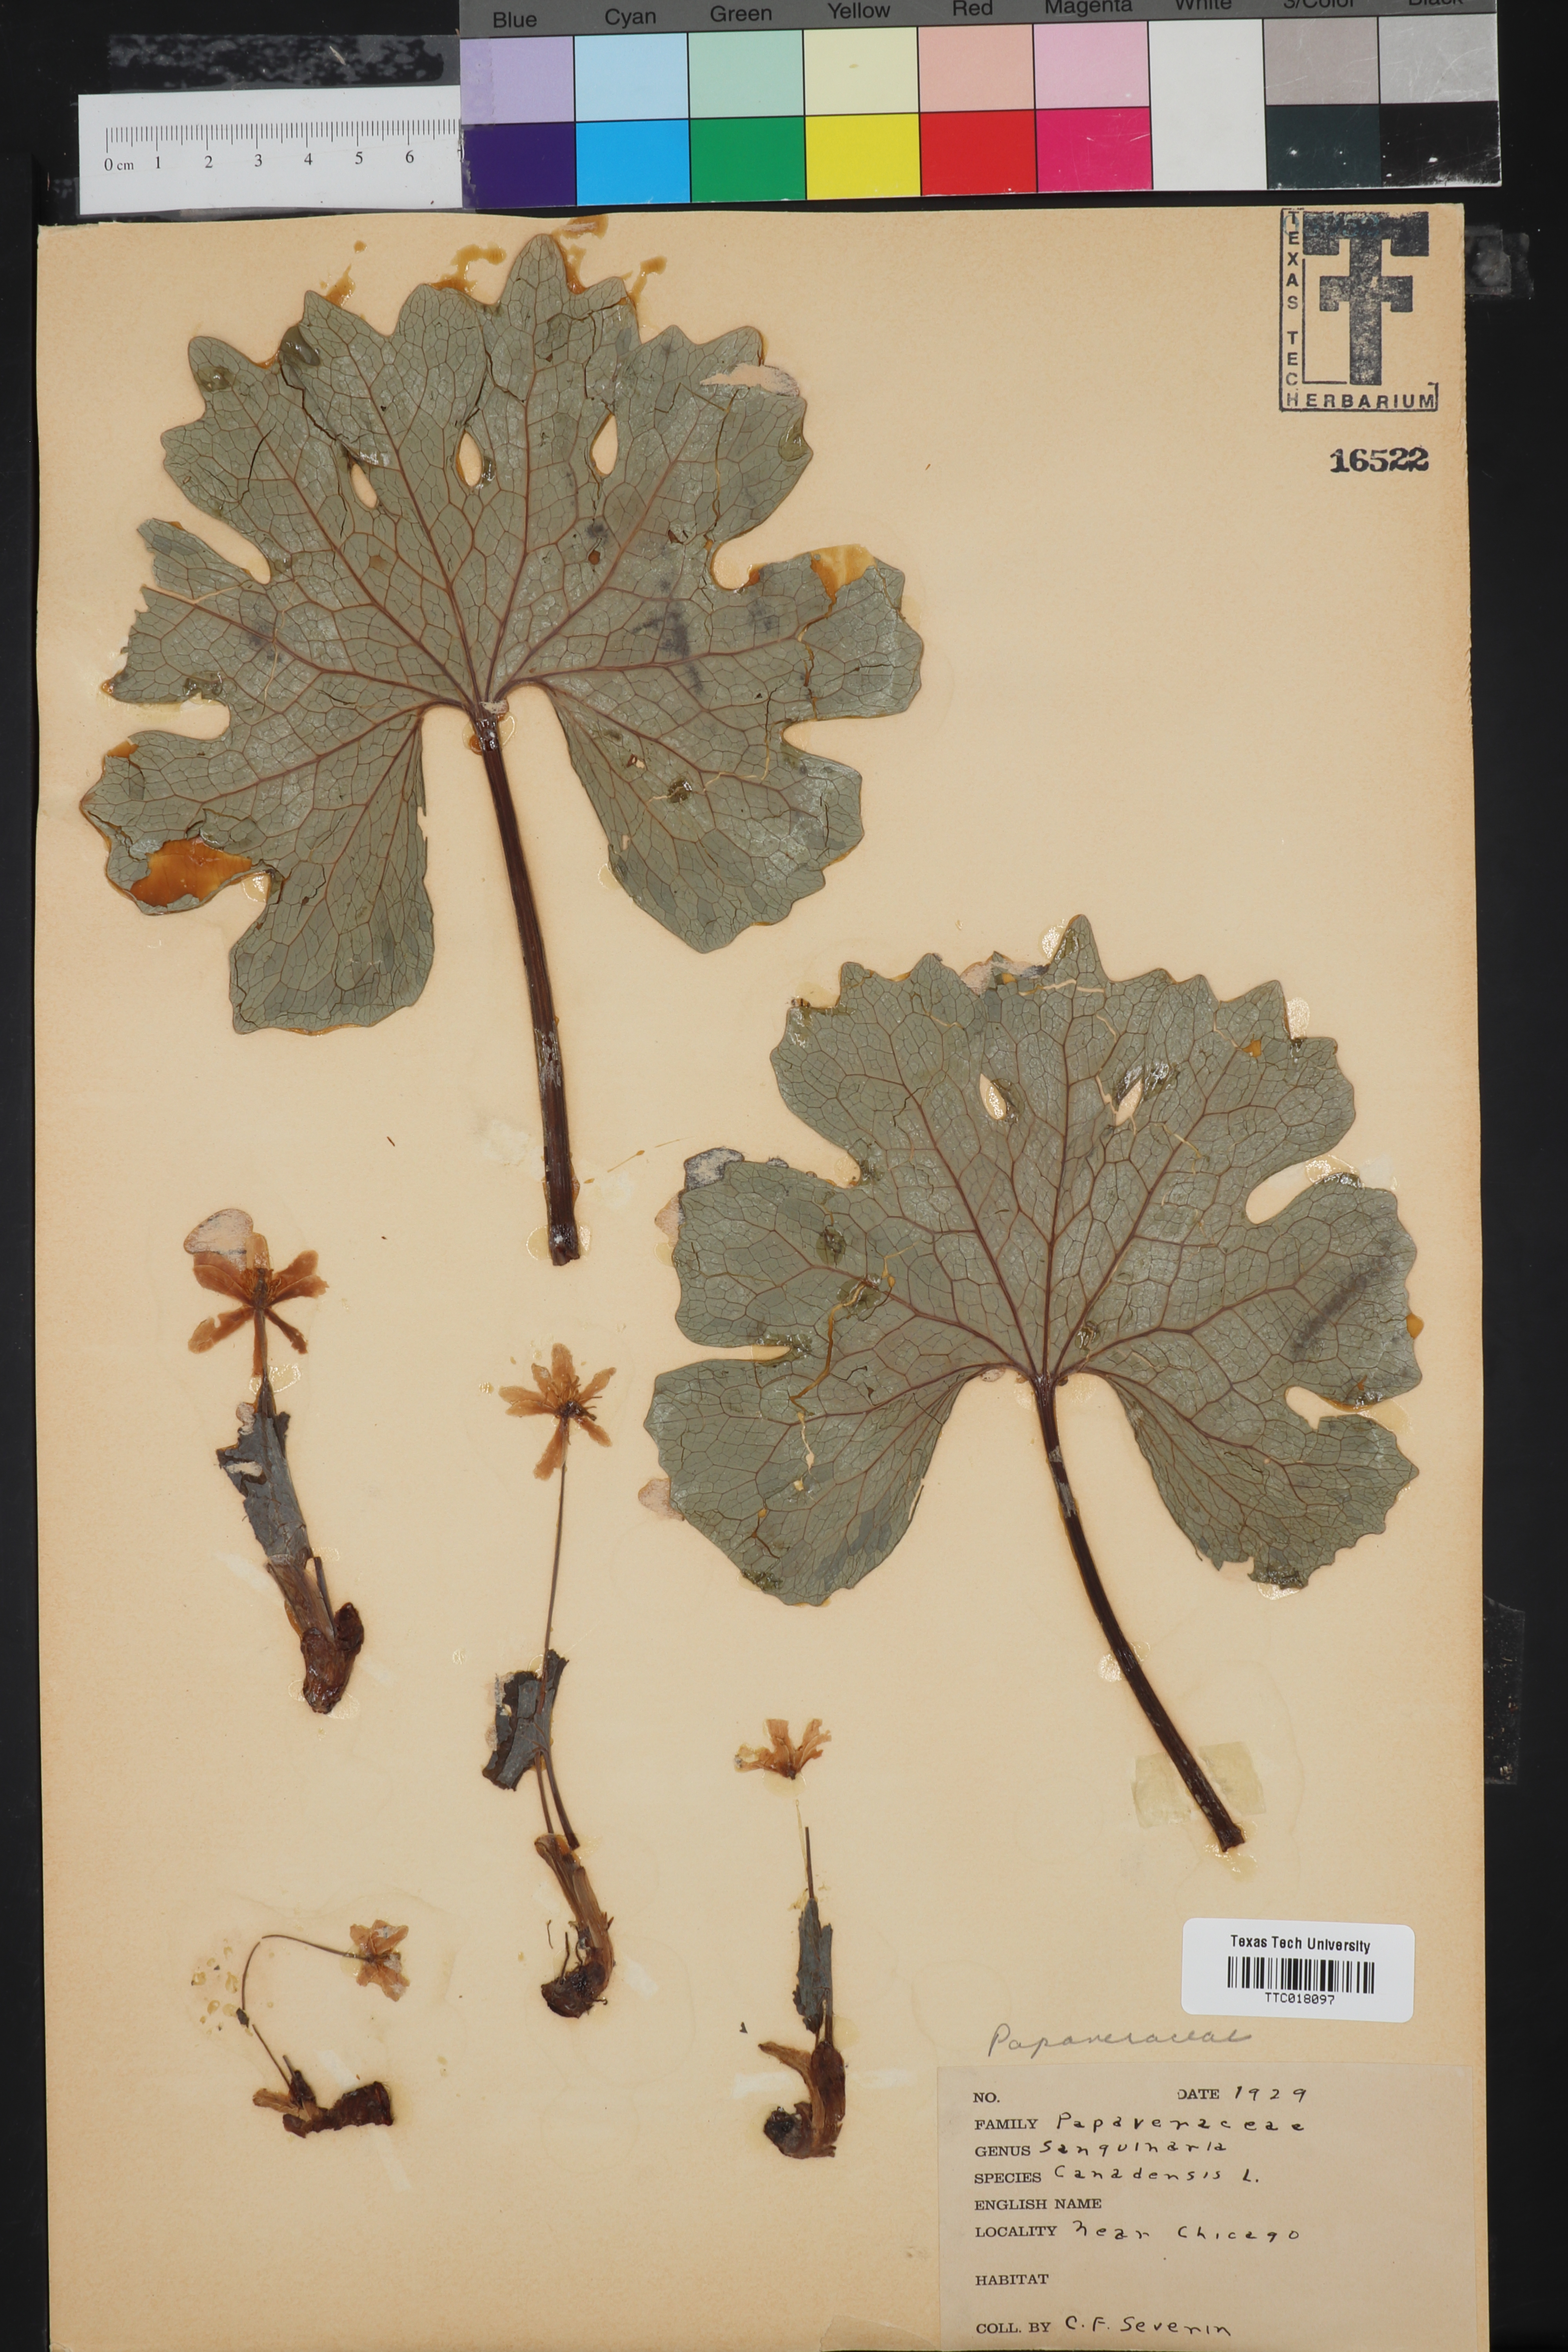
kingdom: Plantae
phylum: Tracheophyta
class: Magnoliopsida
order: Ranunculales
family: Papaveraceae
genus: Sanguinaria
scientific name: Sanguinaria canadensis
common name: Bloodroot
